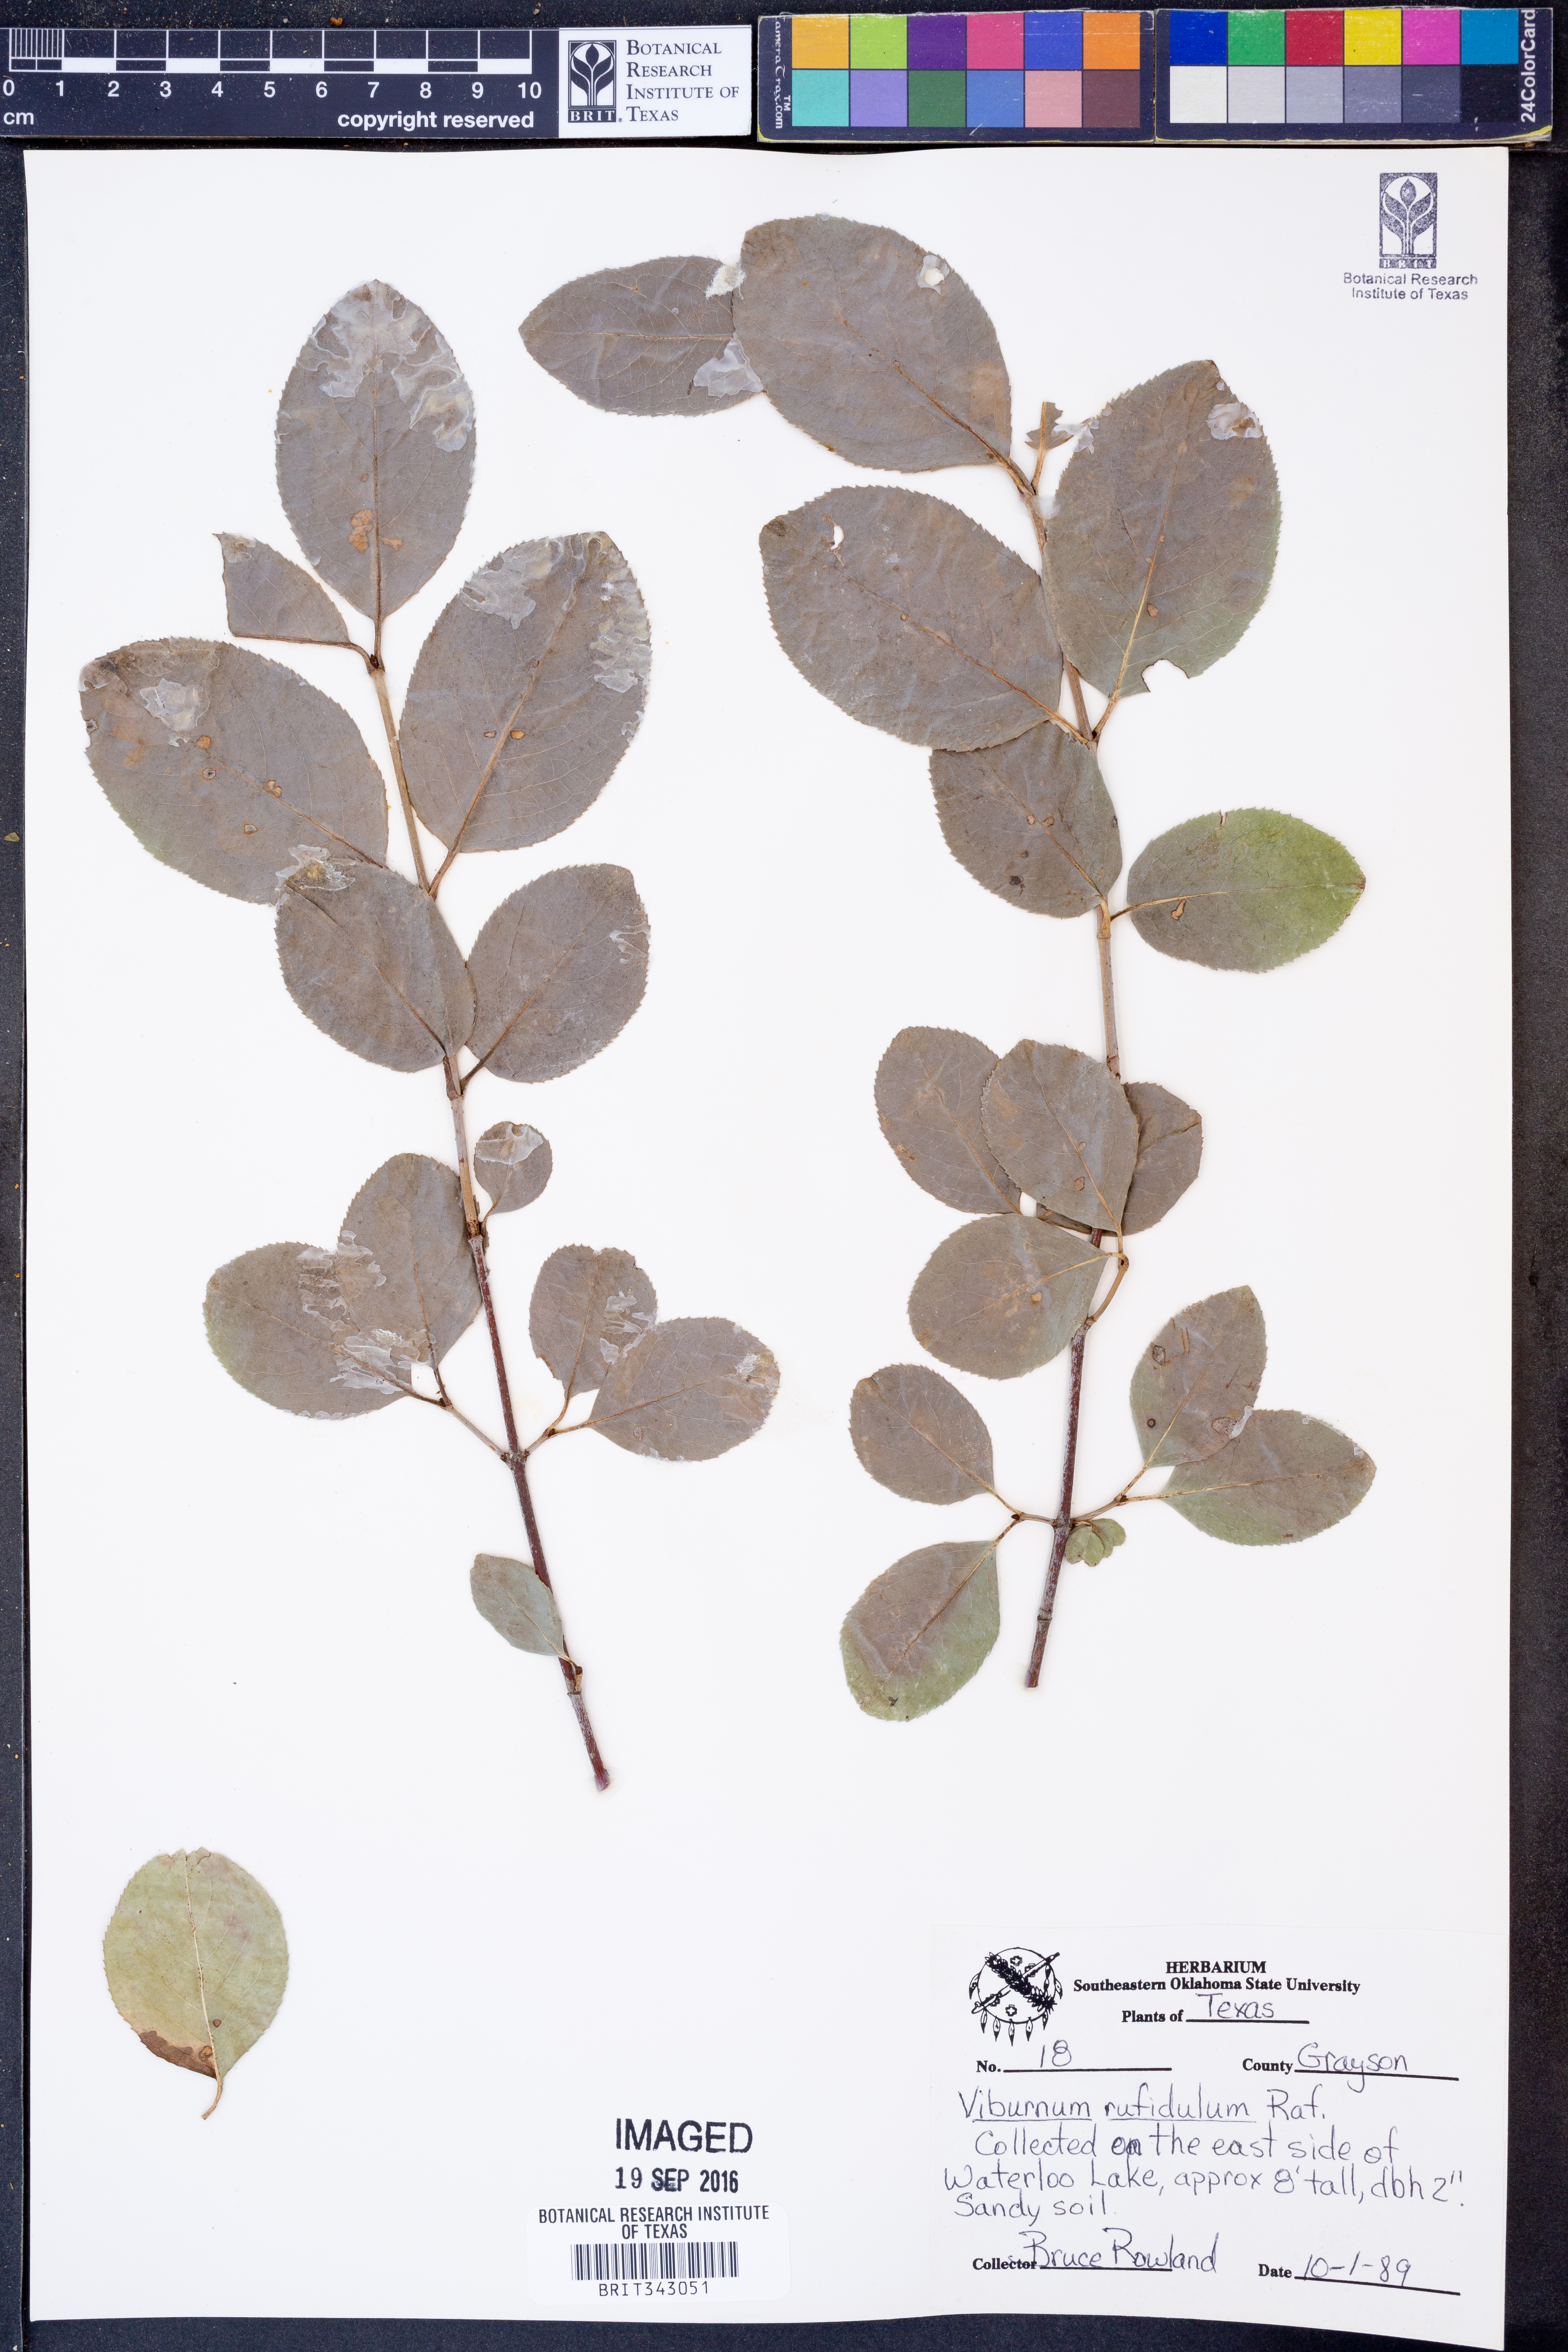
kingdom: Plantae
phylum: Tracheophyta
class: Magnoliopsida
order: Dipsacales
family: Viburnaceae
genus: Viburnum
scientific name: Viburnum rufidulum
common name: Blue haw
